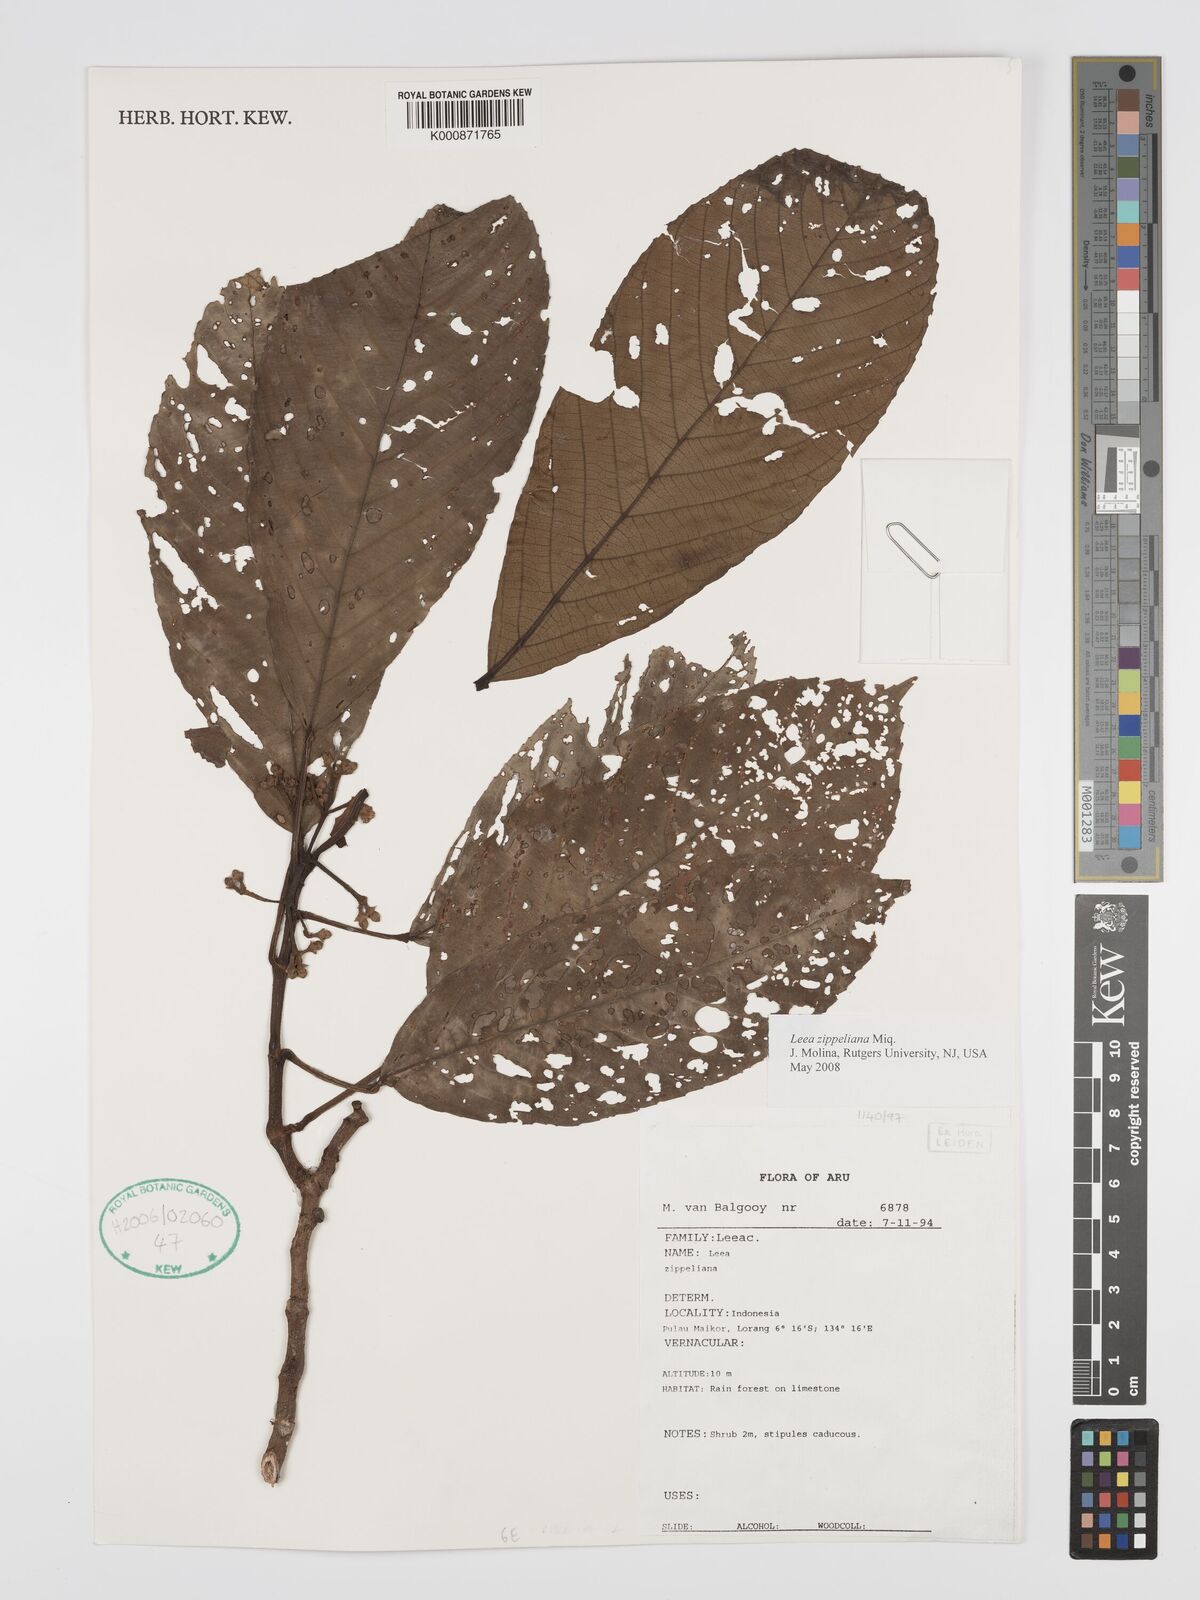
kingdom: Plantae
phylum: Tracheophyta
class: Magnoliopsida
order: Vitales
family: Vitaceae
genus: Leea
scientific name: Leea zippeliana
